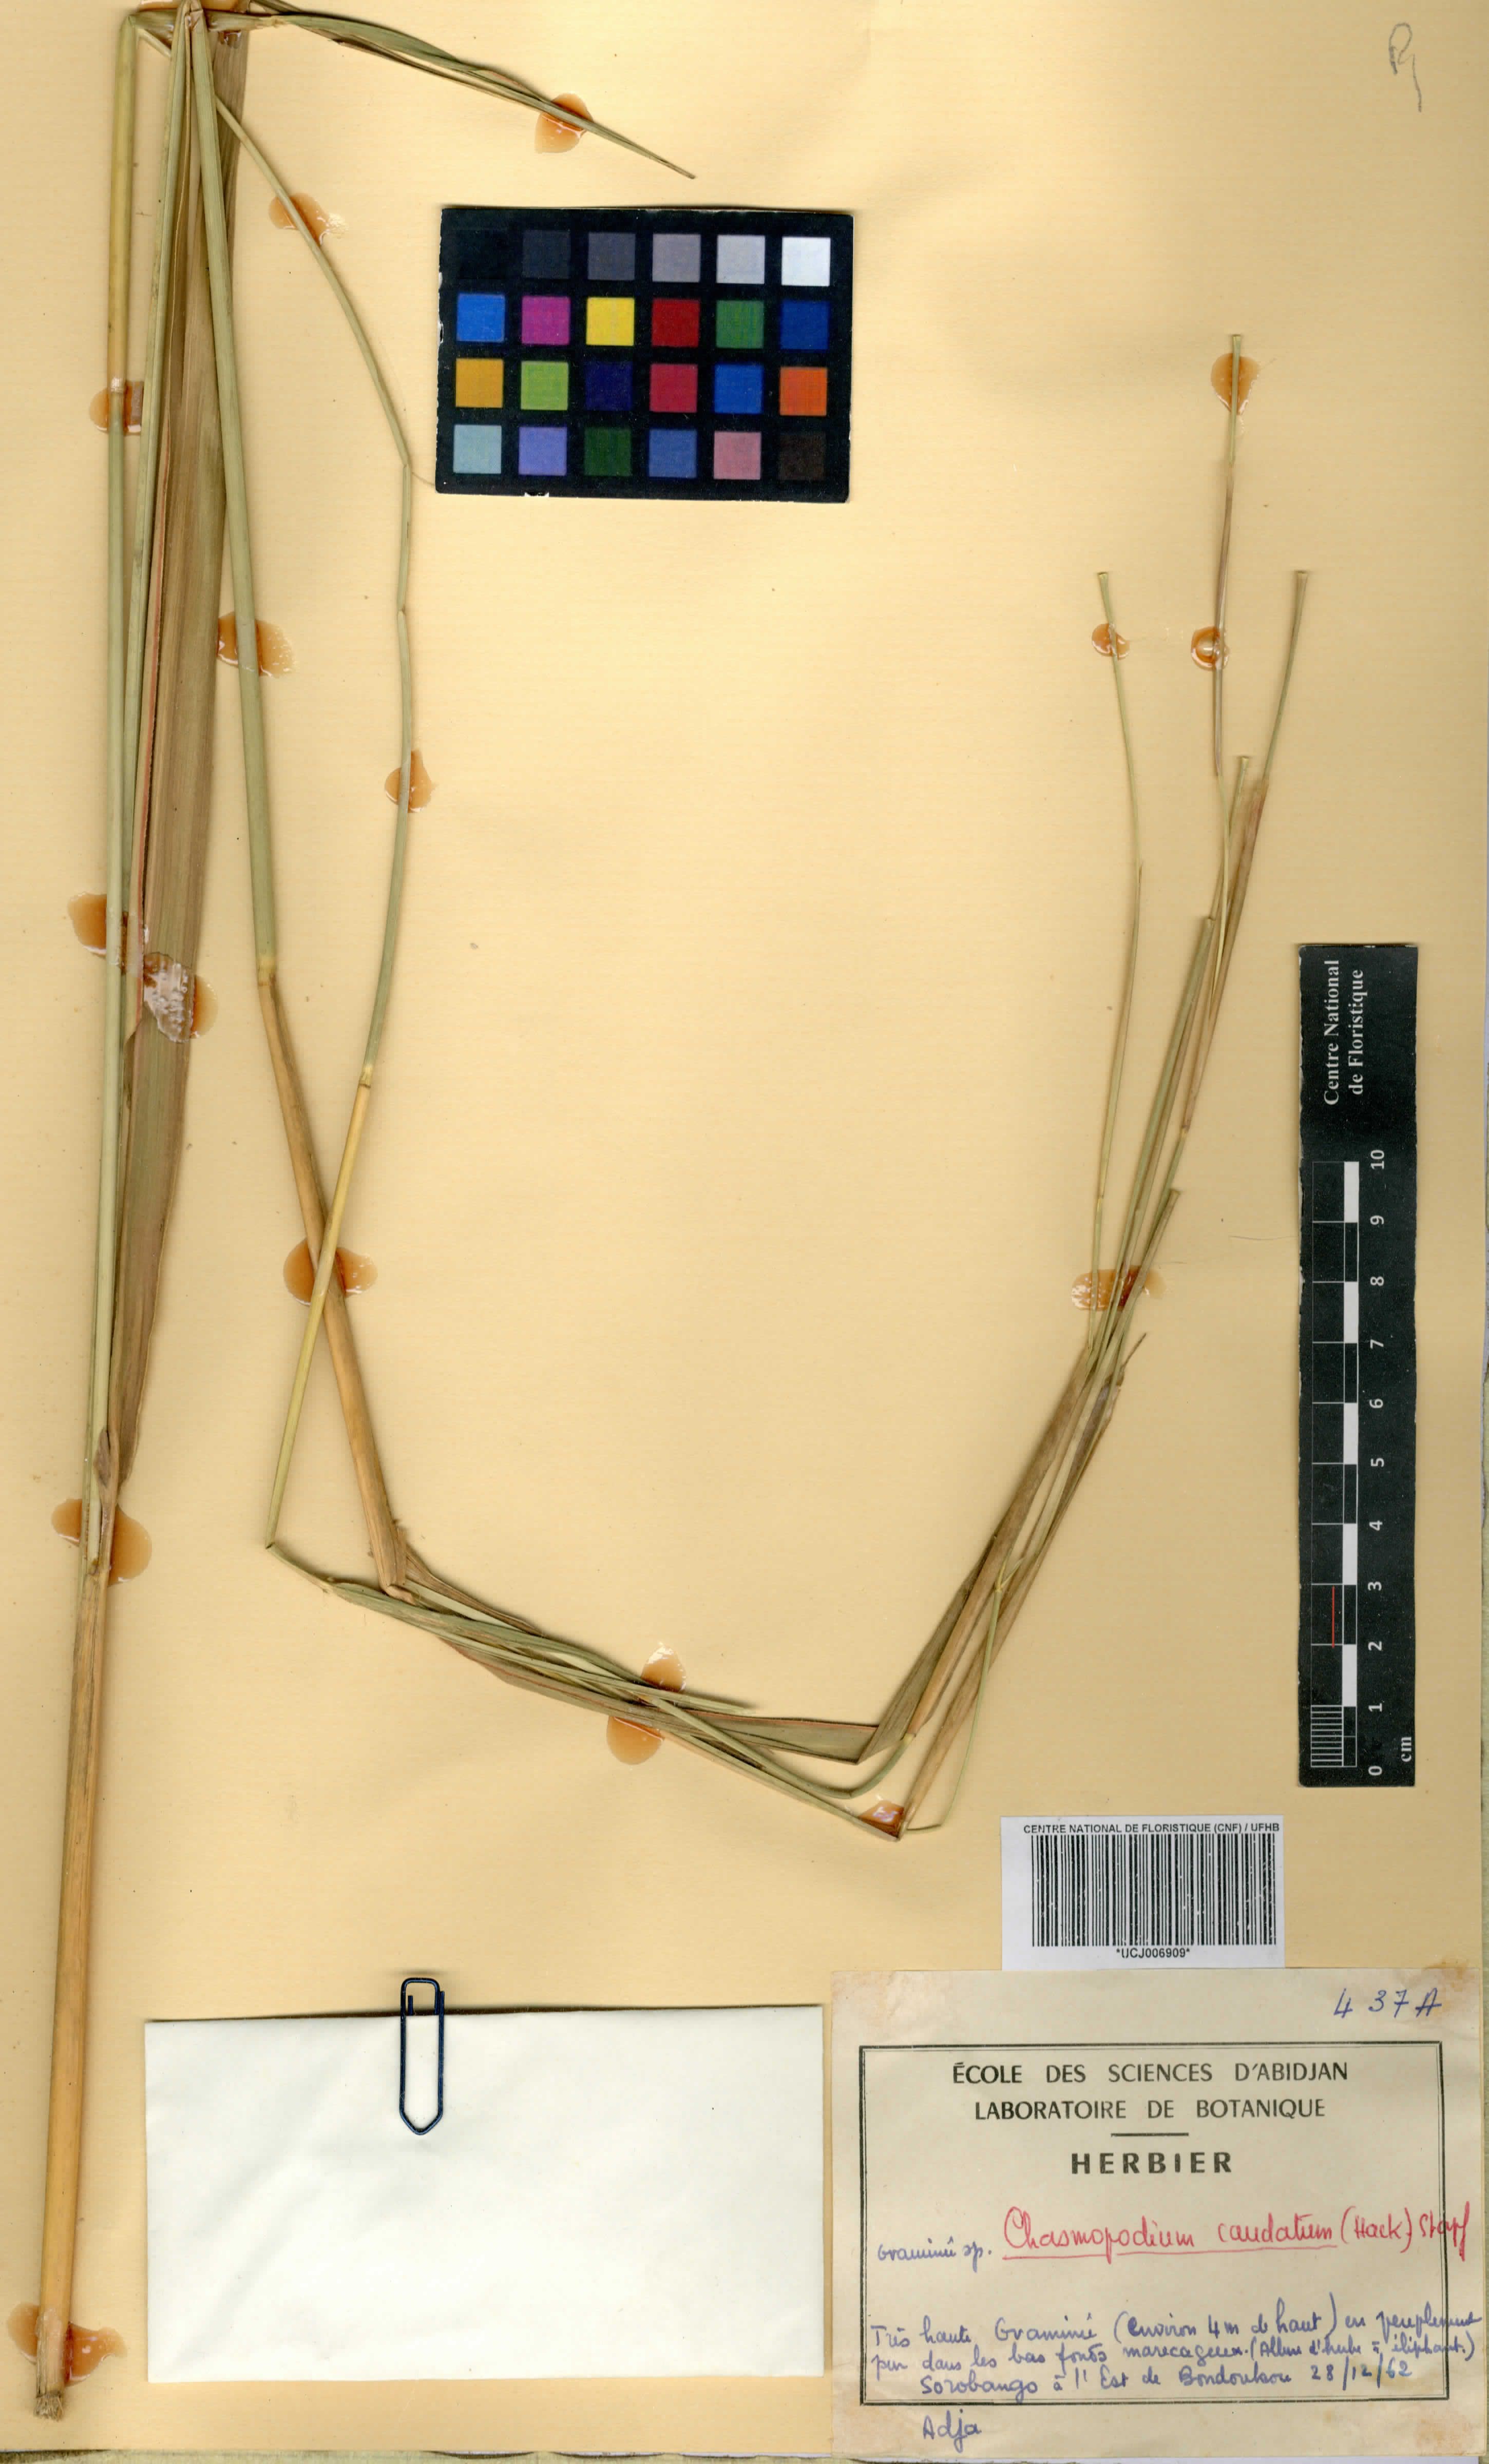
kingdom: Plantae
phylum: Tracheophyta
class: Liliopsida
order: Poales
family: Poaceae
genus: Chasmopodium
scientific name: Chasmopodium caudatum
